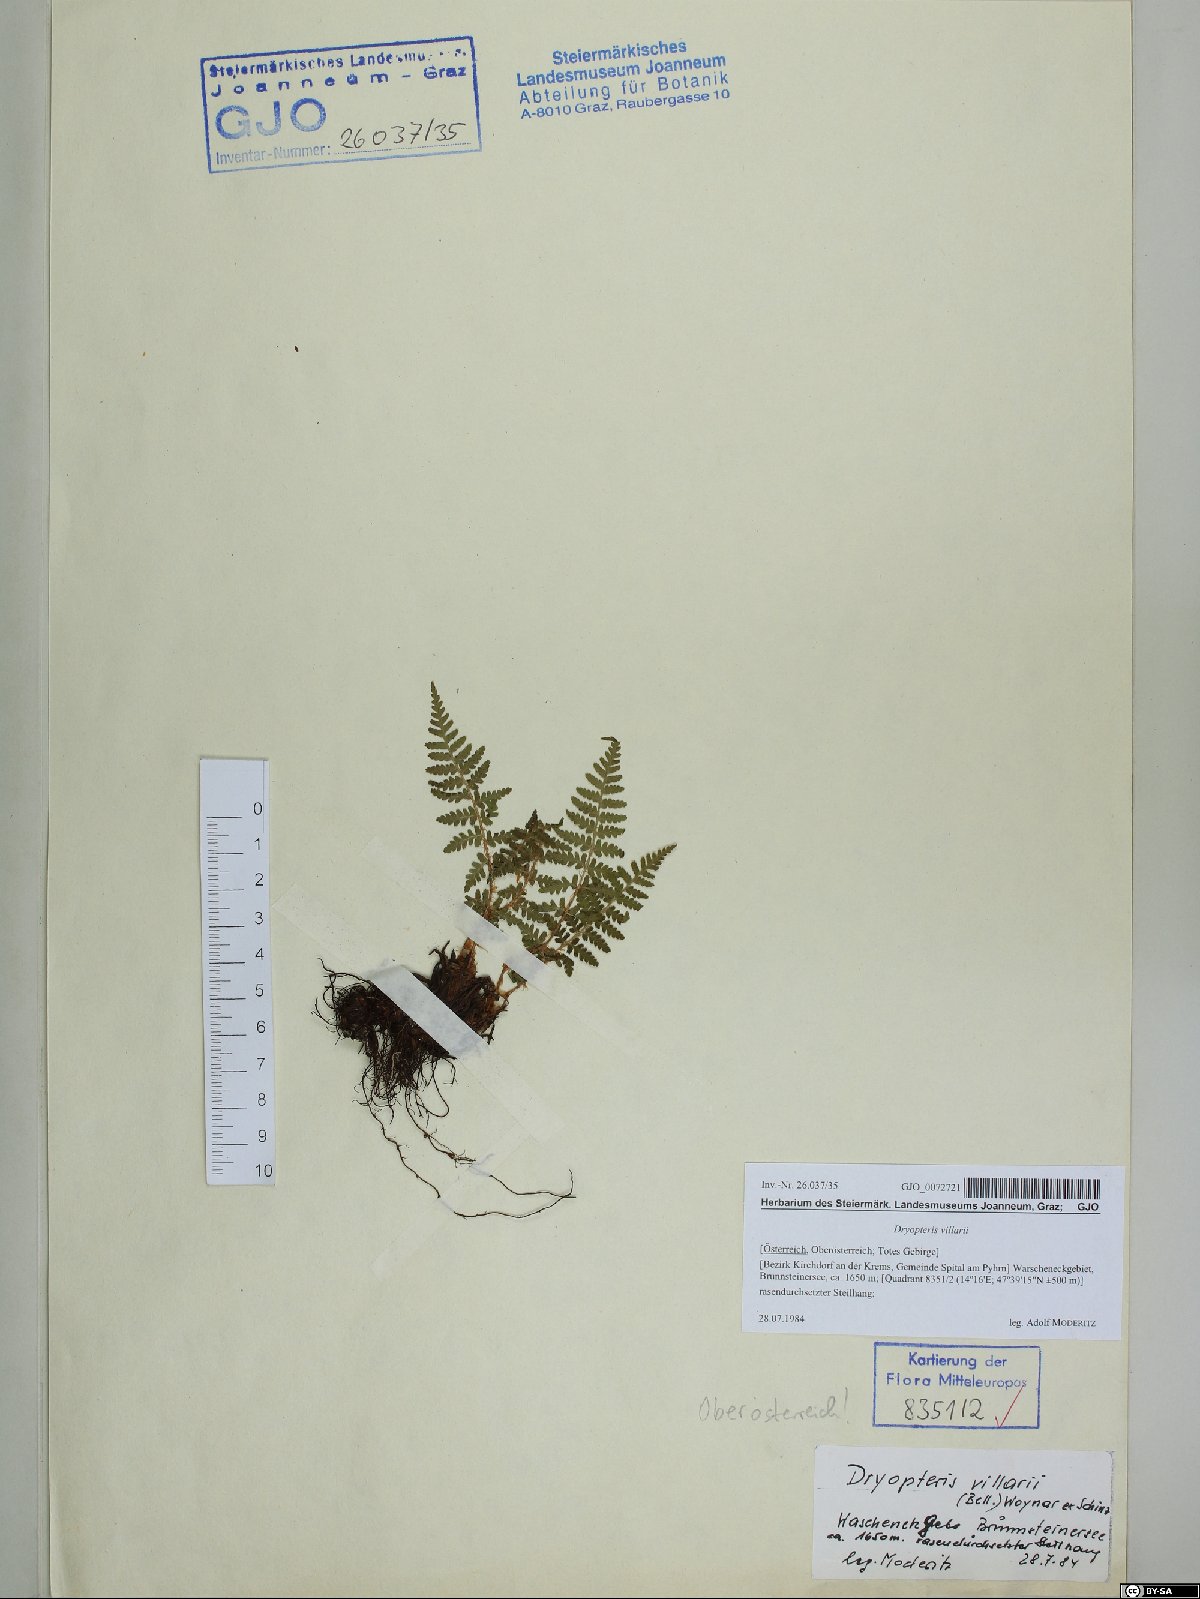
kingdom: Plantae
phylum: Tracheophyta
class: Polypodiopsida
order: Polypodiales
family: Dryopteridaceae
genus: Dryopteris
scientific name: Dryopteris villarii
